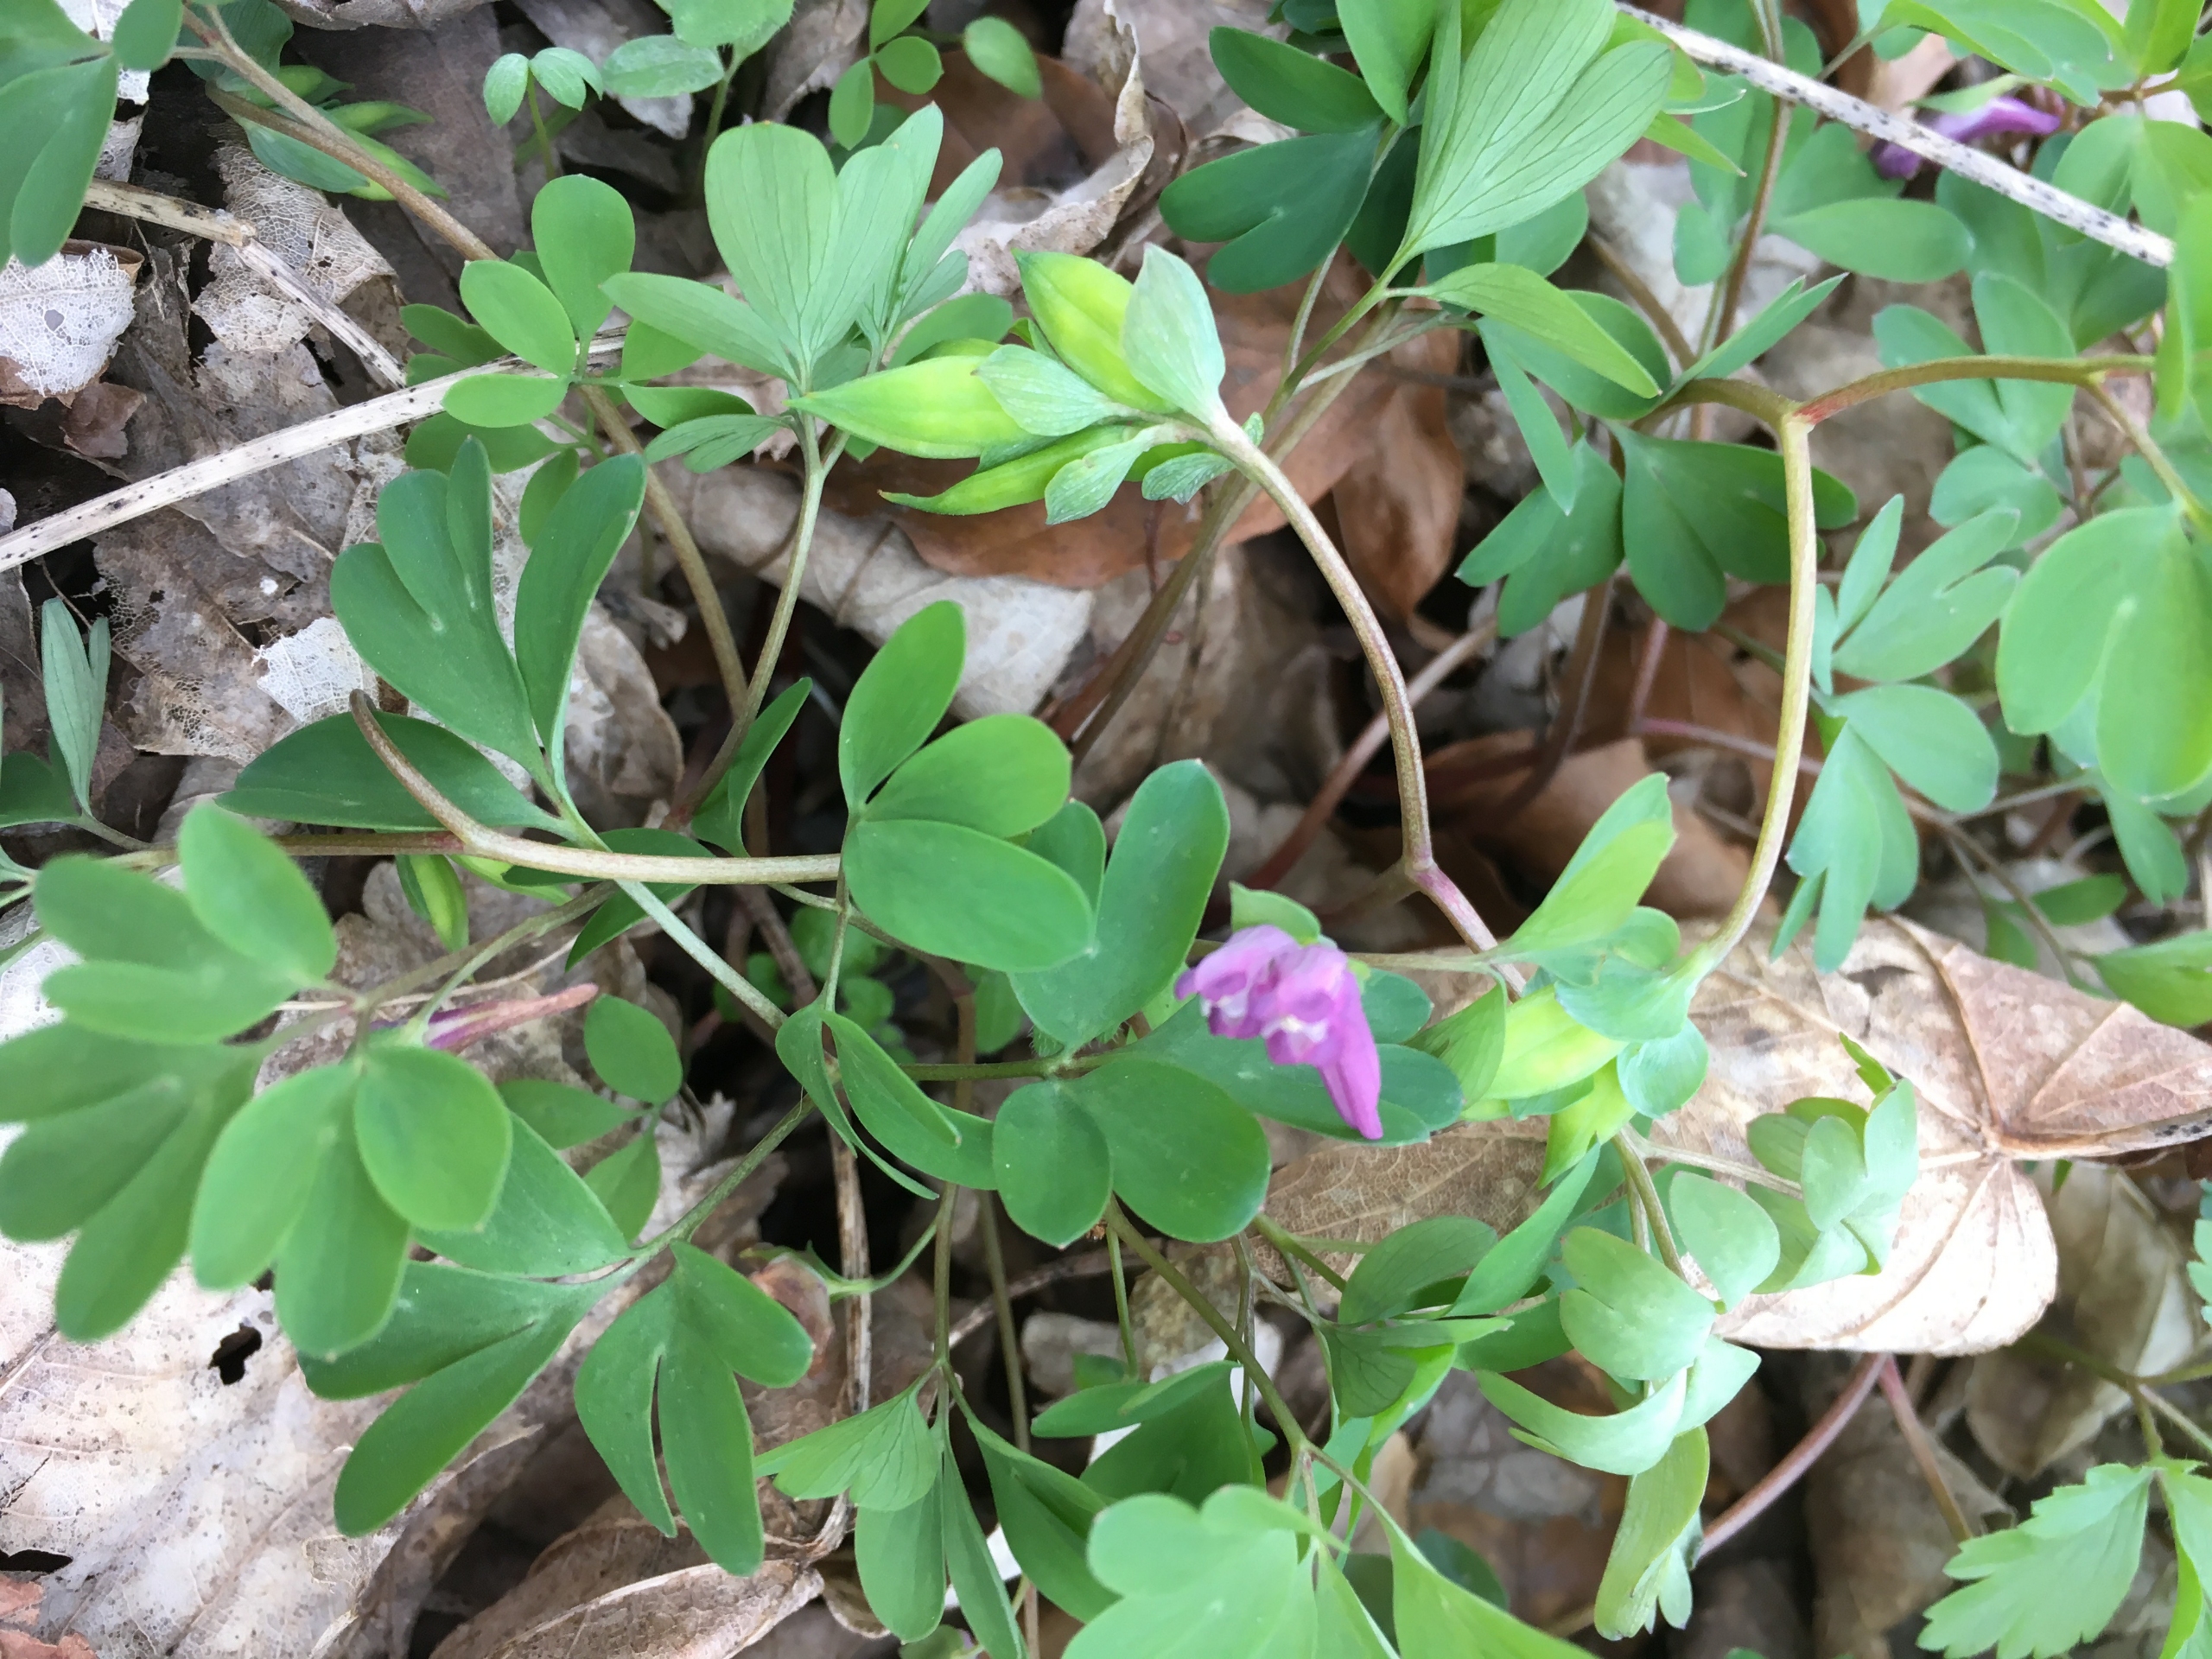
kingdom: Plantae
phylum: Tracheophyta
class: Magnoliopsida
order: Ranunculales
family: Papaveraceae
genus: Corydalis
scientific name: Corydalis intermedia
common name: Liden lærkespore
